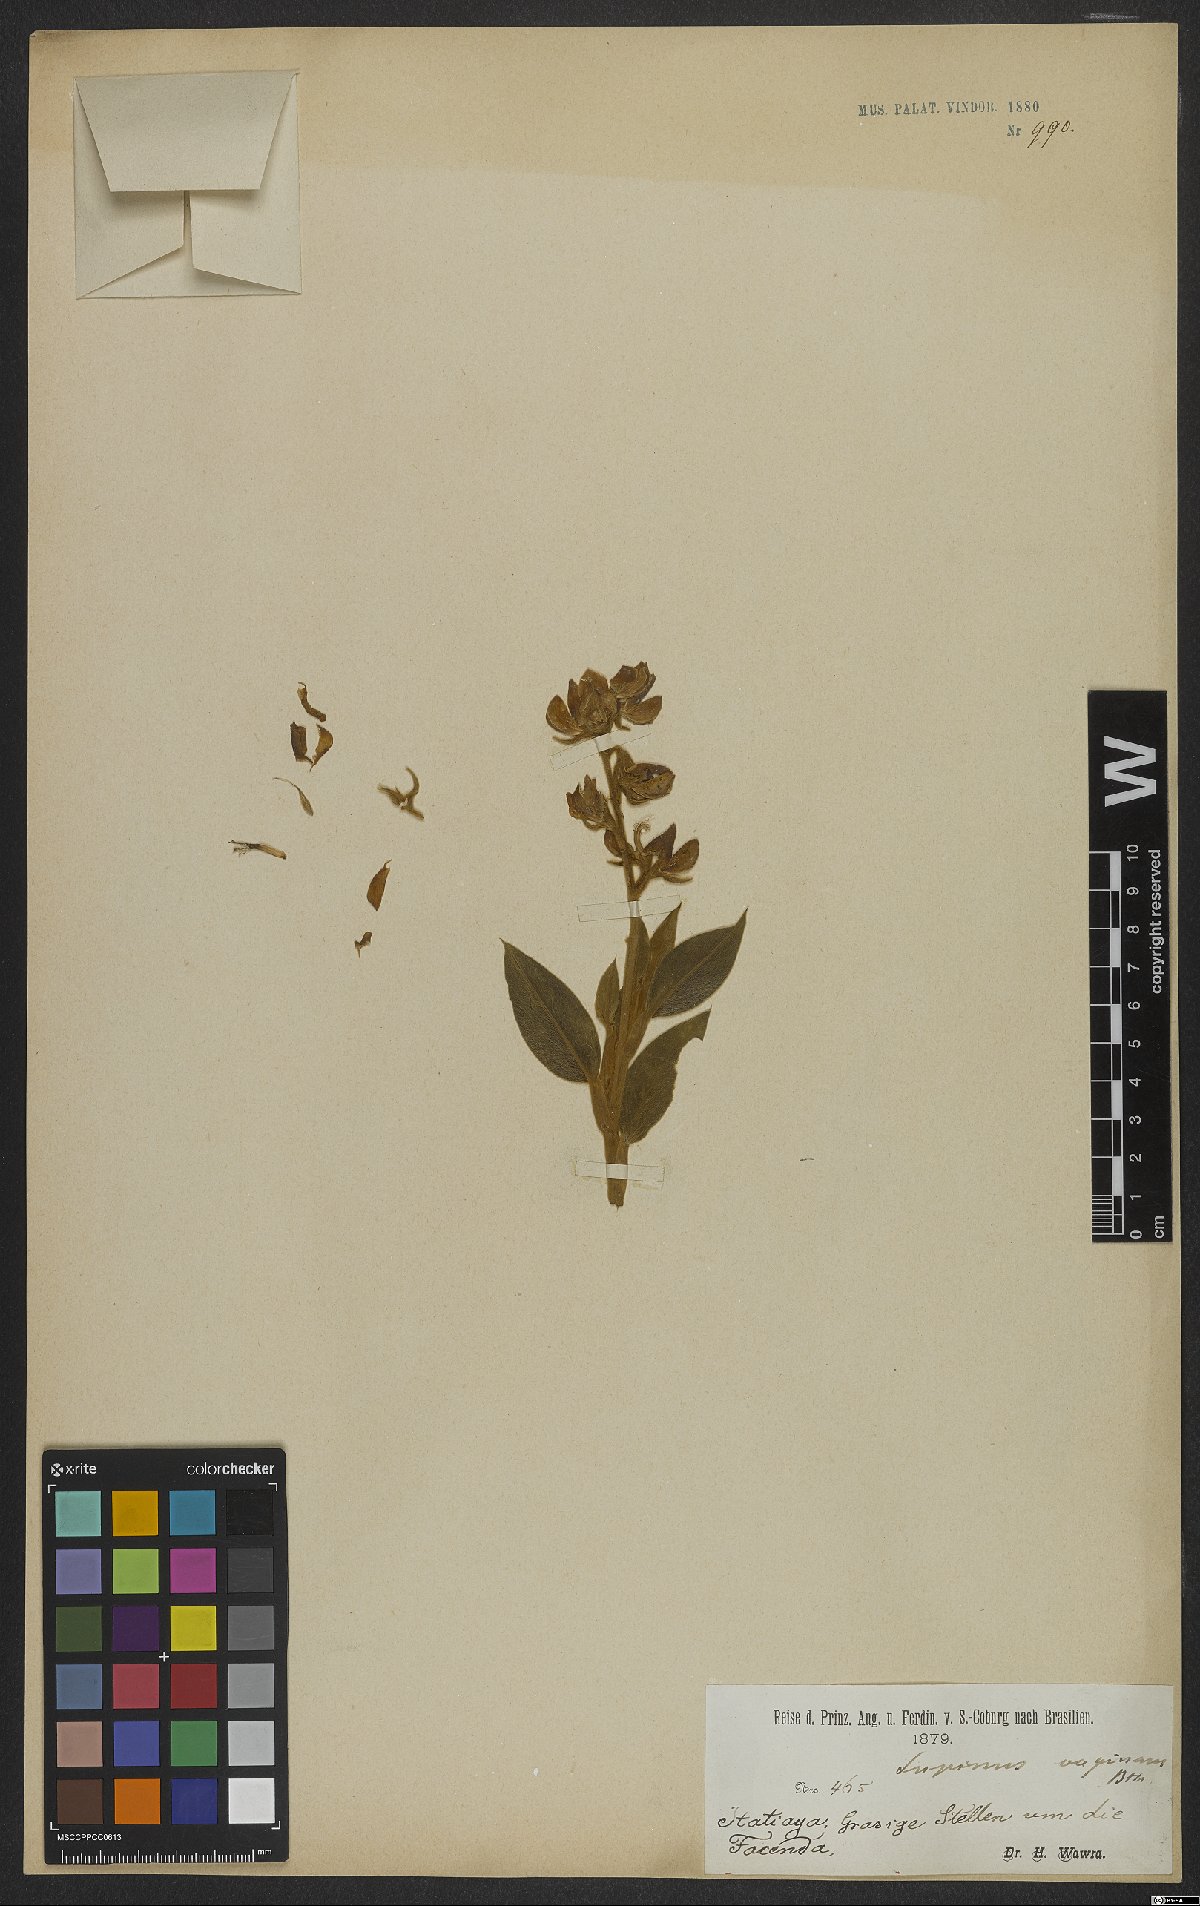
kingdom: Plantae
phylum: Tracheophyta
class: Magnoliopsida
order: Fabales
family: Fabaceae
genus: Lupinus
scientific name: Lupinus velutinus
